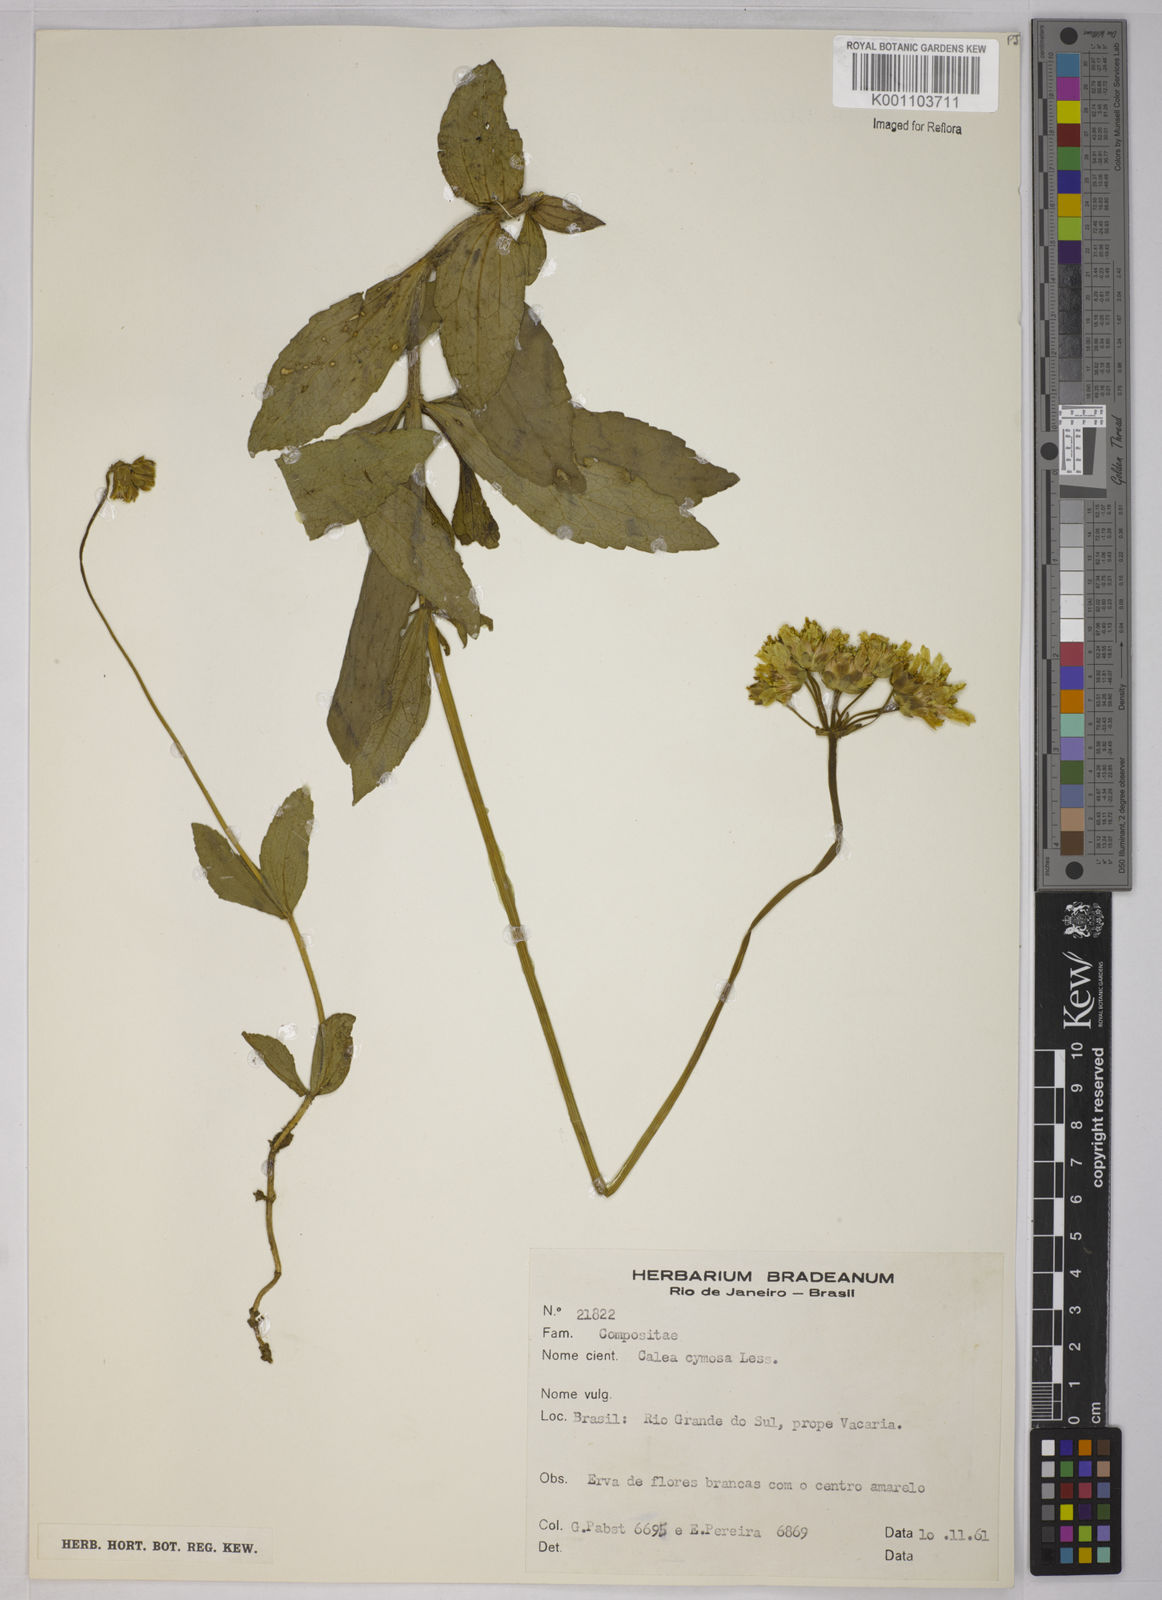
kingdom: Plantae
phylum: Tracheophyta
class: Magnoliopsida
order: Asterales
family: Asteraceae
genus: Calea
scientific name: Calea cymosa
